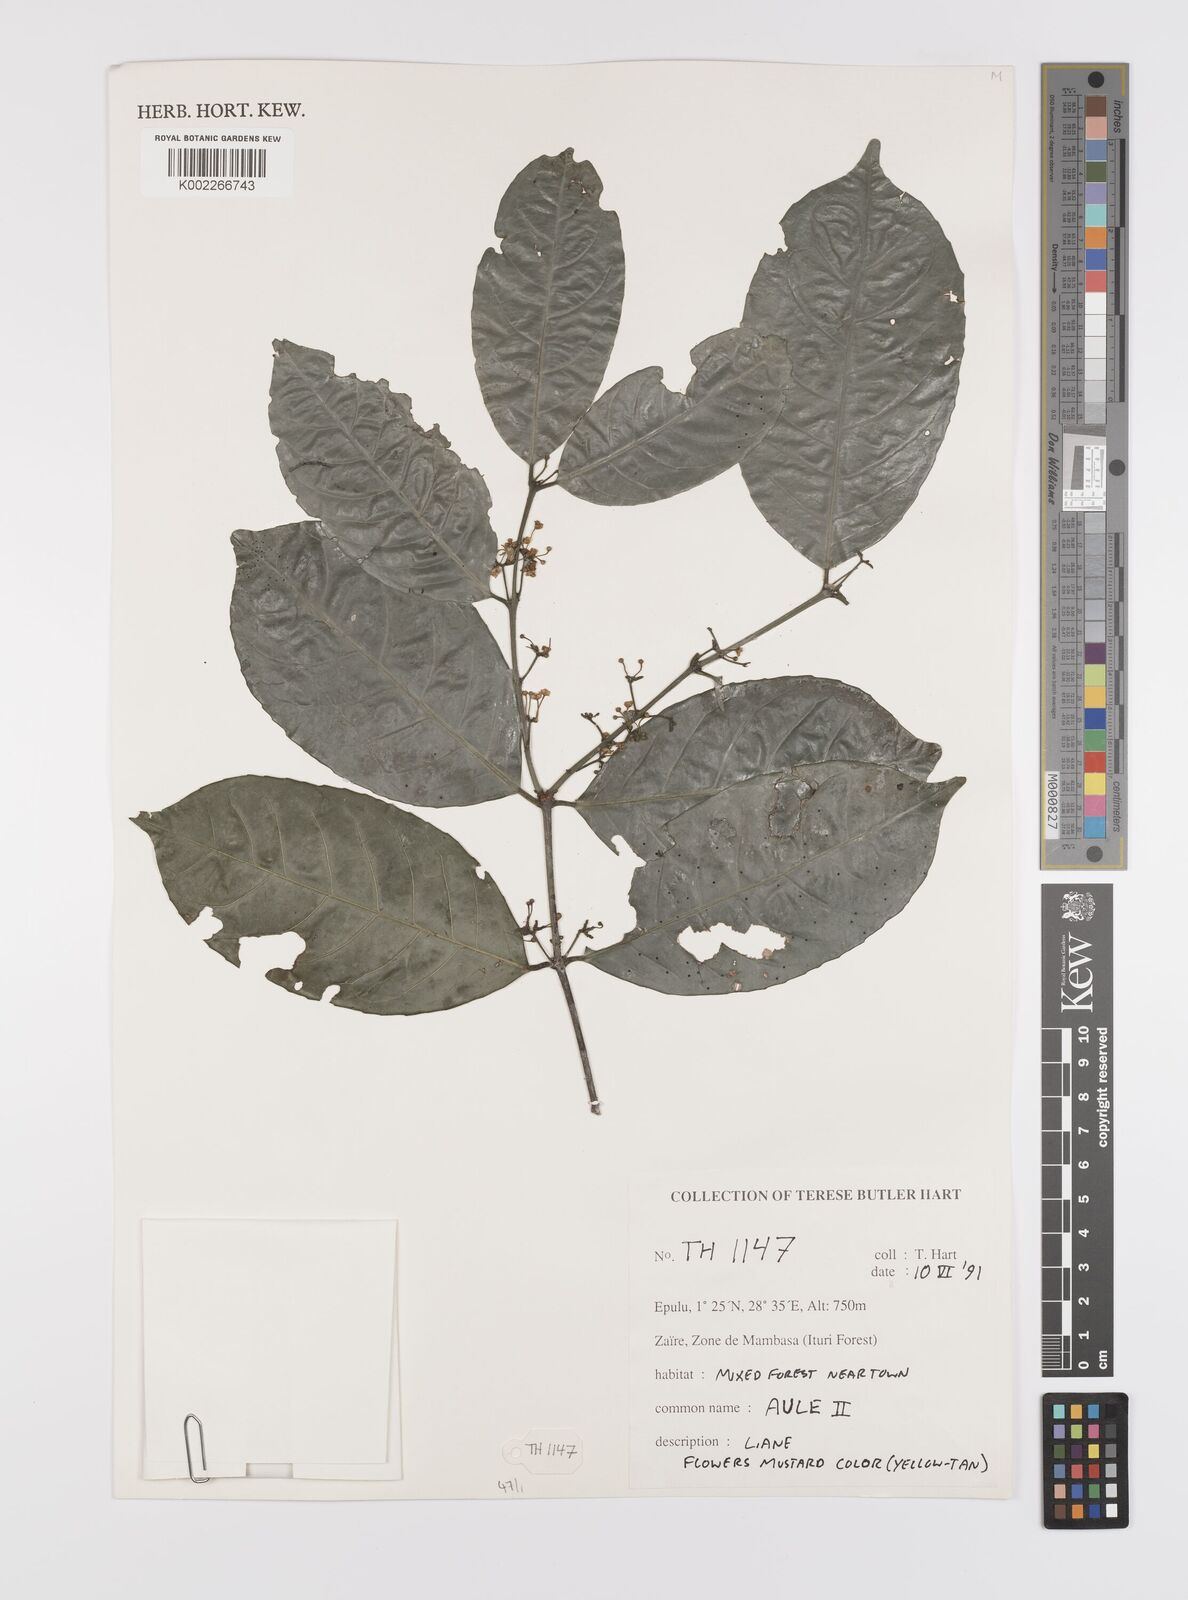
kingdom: Plantae
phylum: Tracheophyta
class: Magnoliopsida
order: Celastrales
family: Celastraceae
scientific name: Celastraceae
